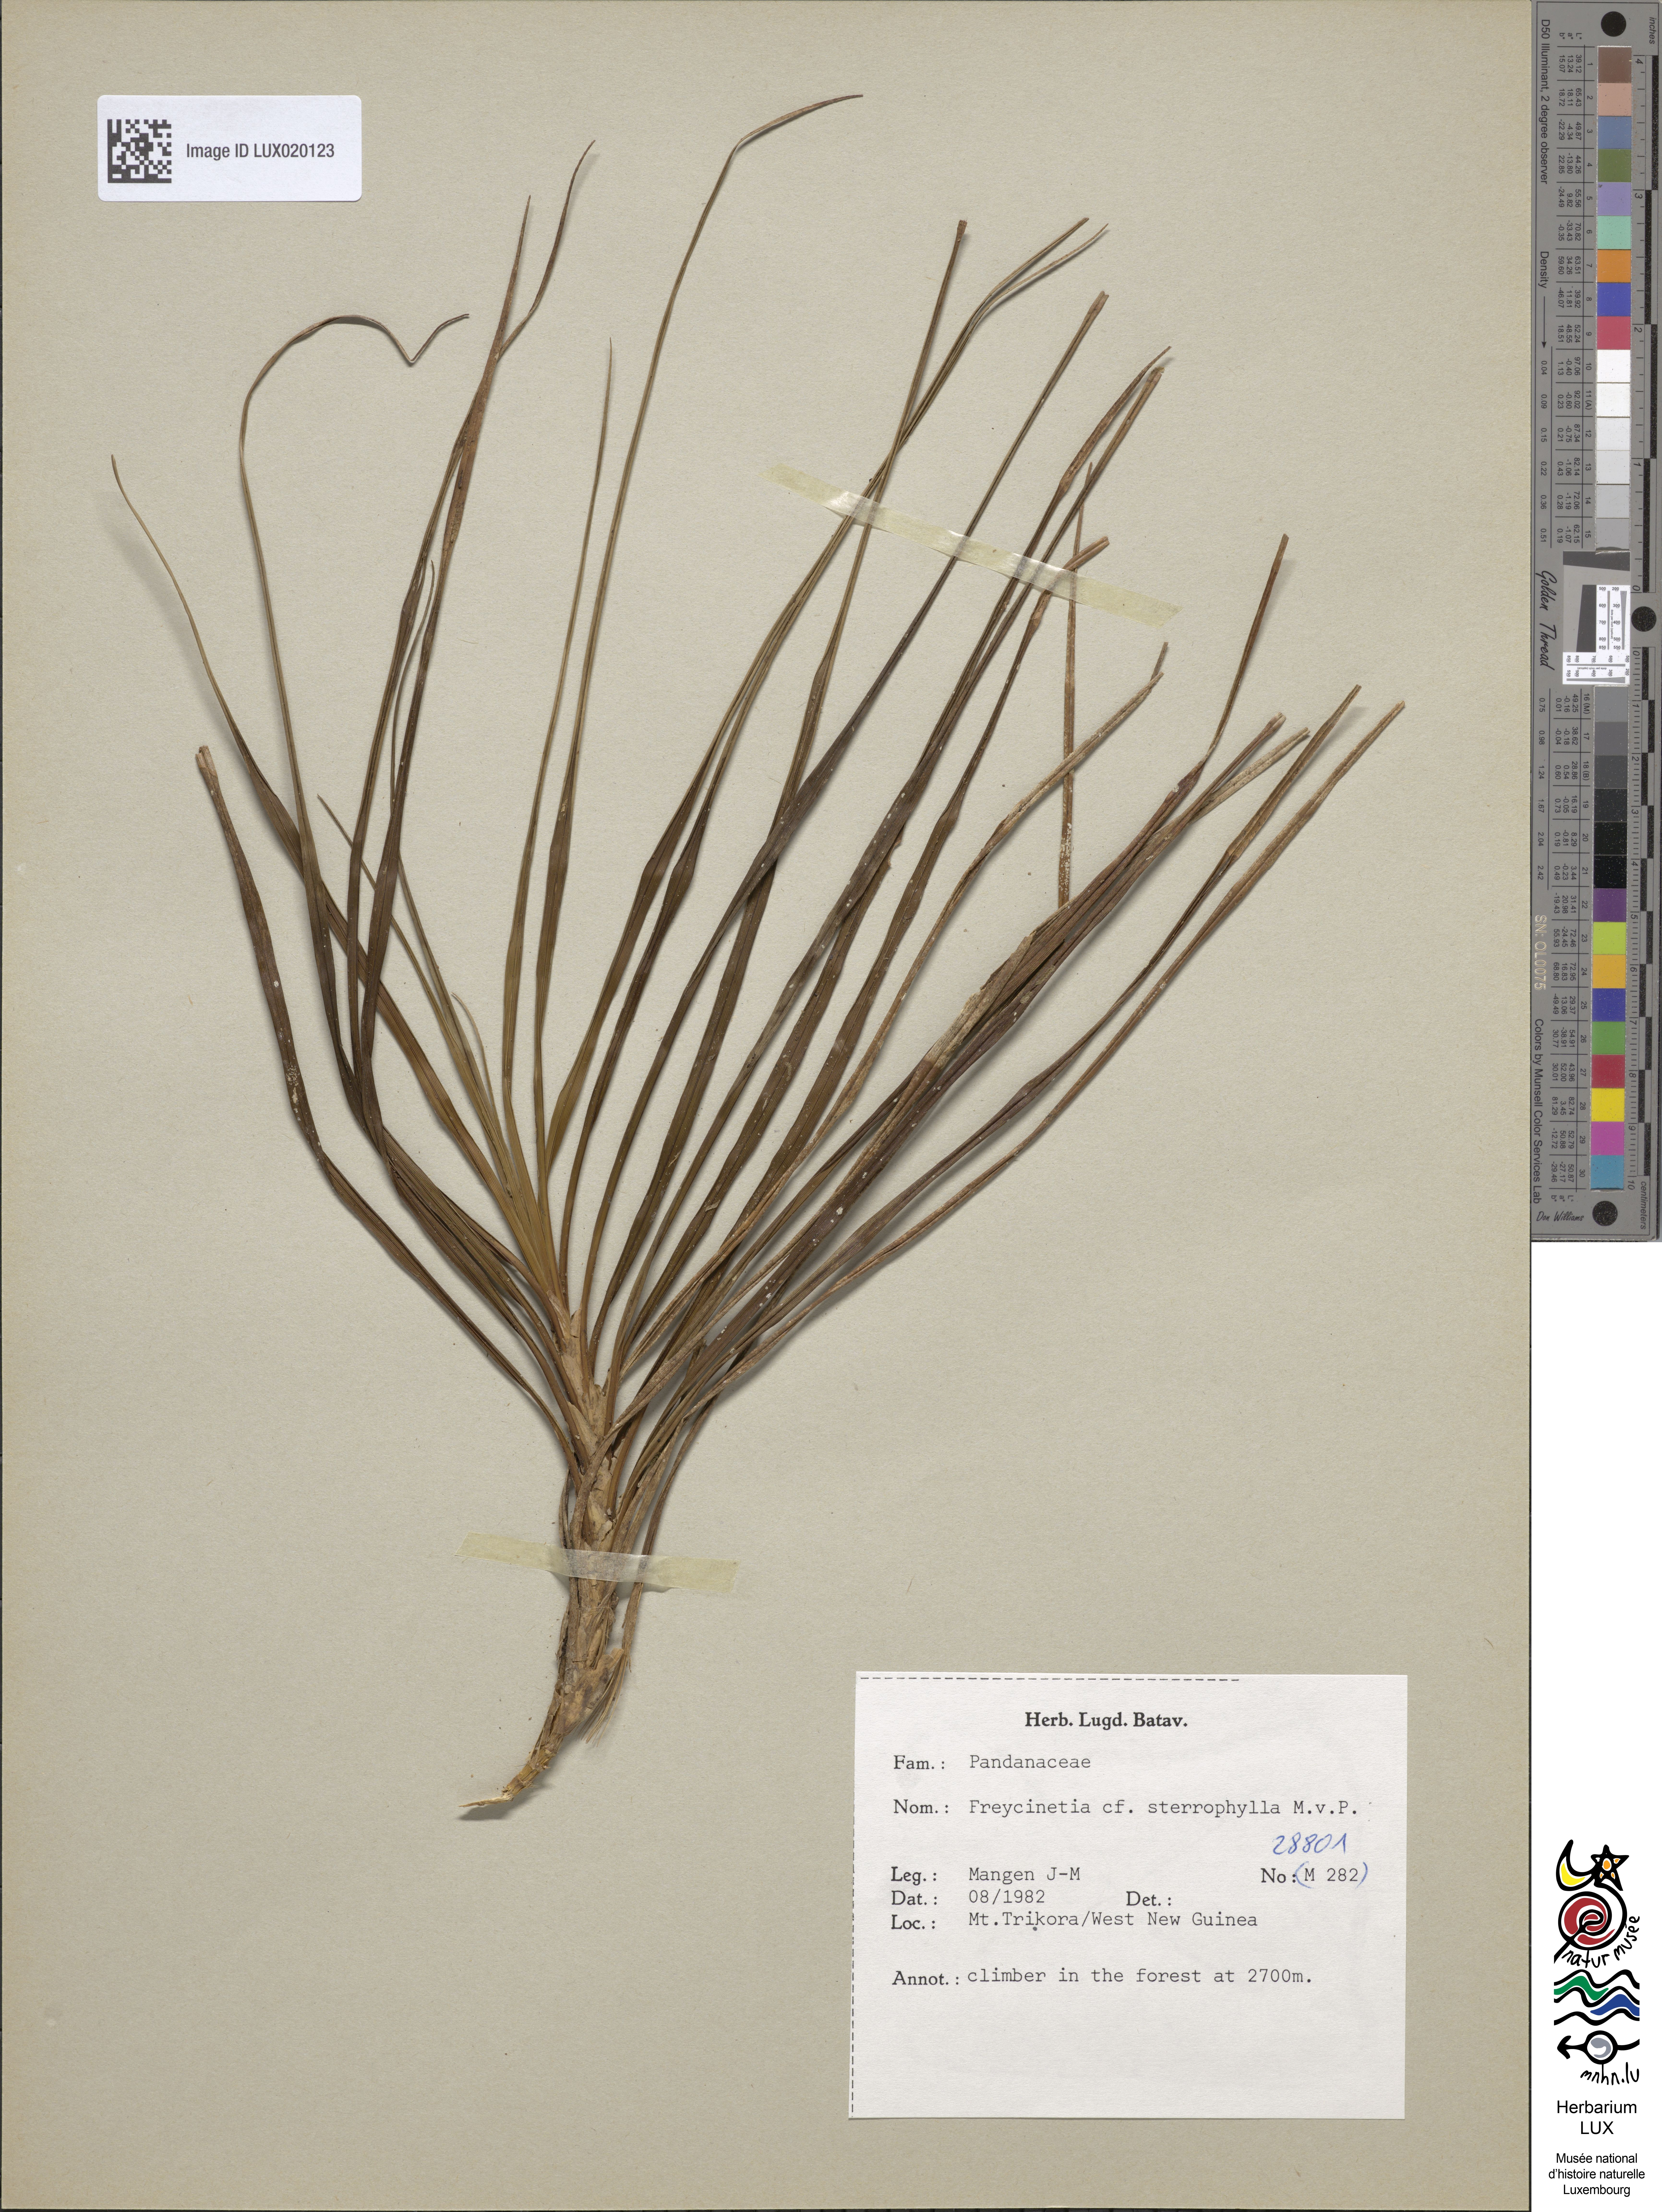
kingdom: Plantae
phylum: Tracheophyta
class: Liliopsida
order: Pandanales
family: Pandanaceae
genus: Freycinetia
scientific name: Freycinetia sterrophylla
